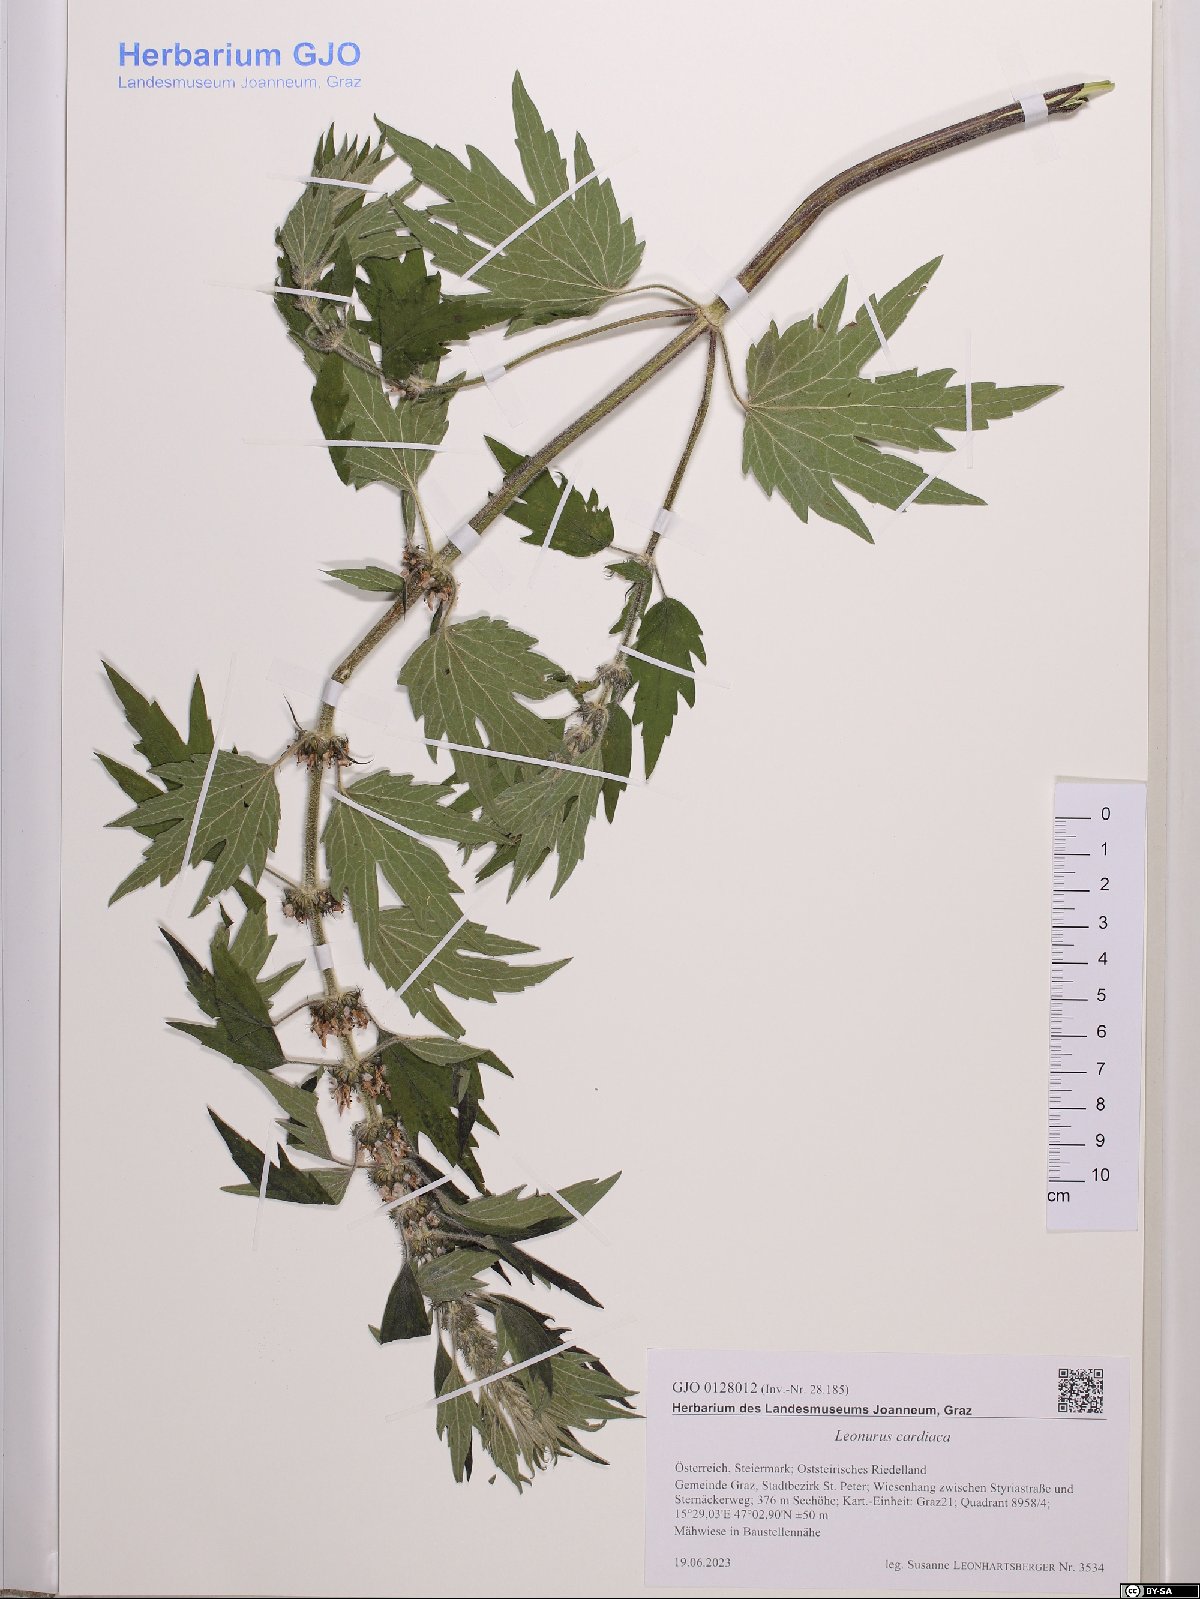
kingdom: Plantae
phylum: Tracheophyta
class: Magnoliopsida
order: Lamiales
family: Lamiaceae
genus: Leonurus
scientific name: Leonurus cardiaca
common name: Motherwort
